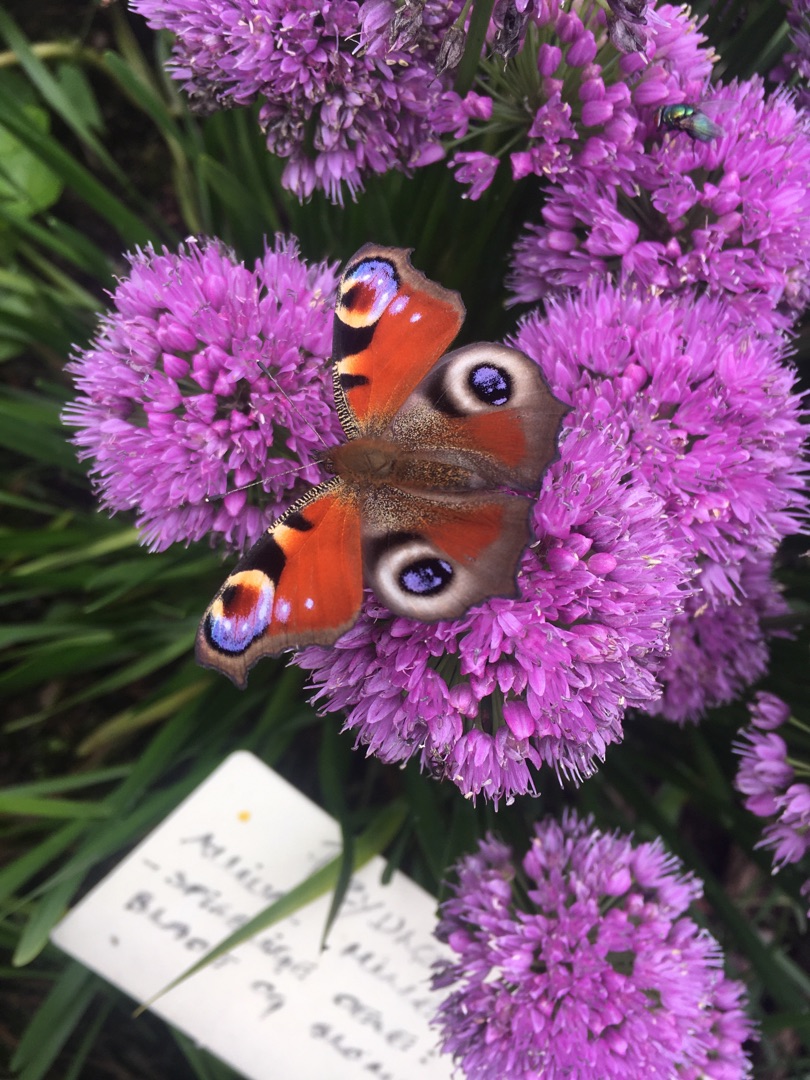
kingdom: Animalia
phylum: Arthropoda
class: Insecta
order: Lepidoptera
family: Nymphalidae
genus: Aglais
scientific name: Aglais io
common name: Dagpåfugleøje
